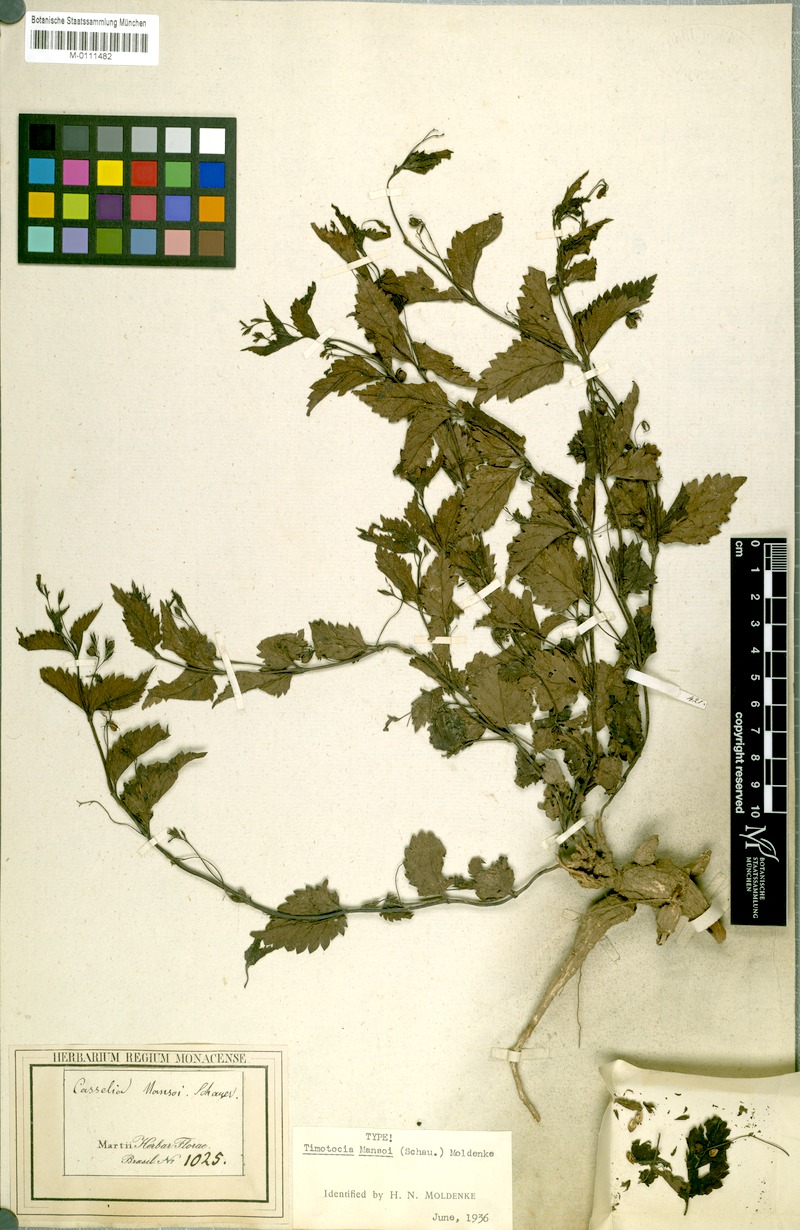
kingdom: Plantae
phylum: Tracheophyta
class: Magnoliopsida
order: Lamiales
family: Verbenaceae
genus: Casselia
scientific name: Casselia chamaedryfolia
